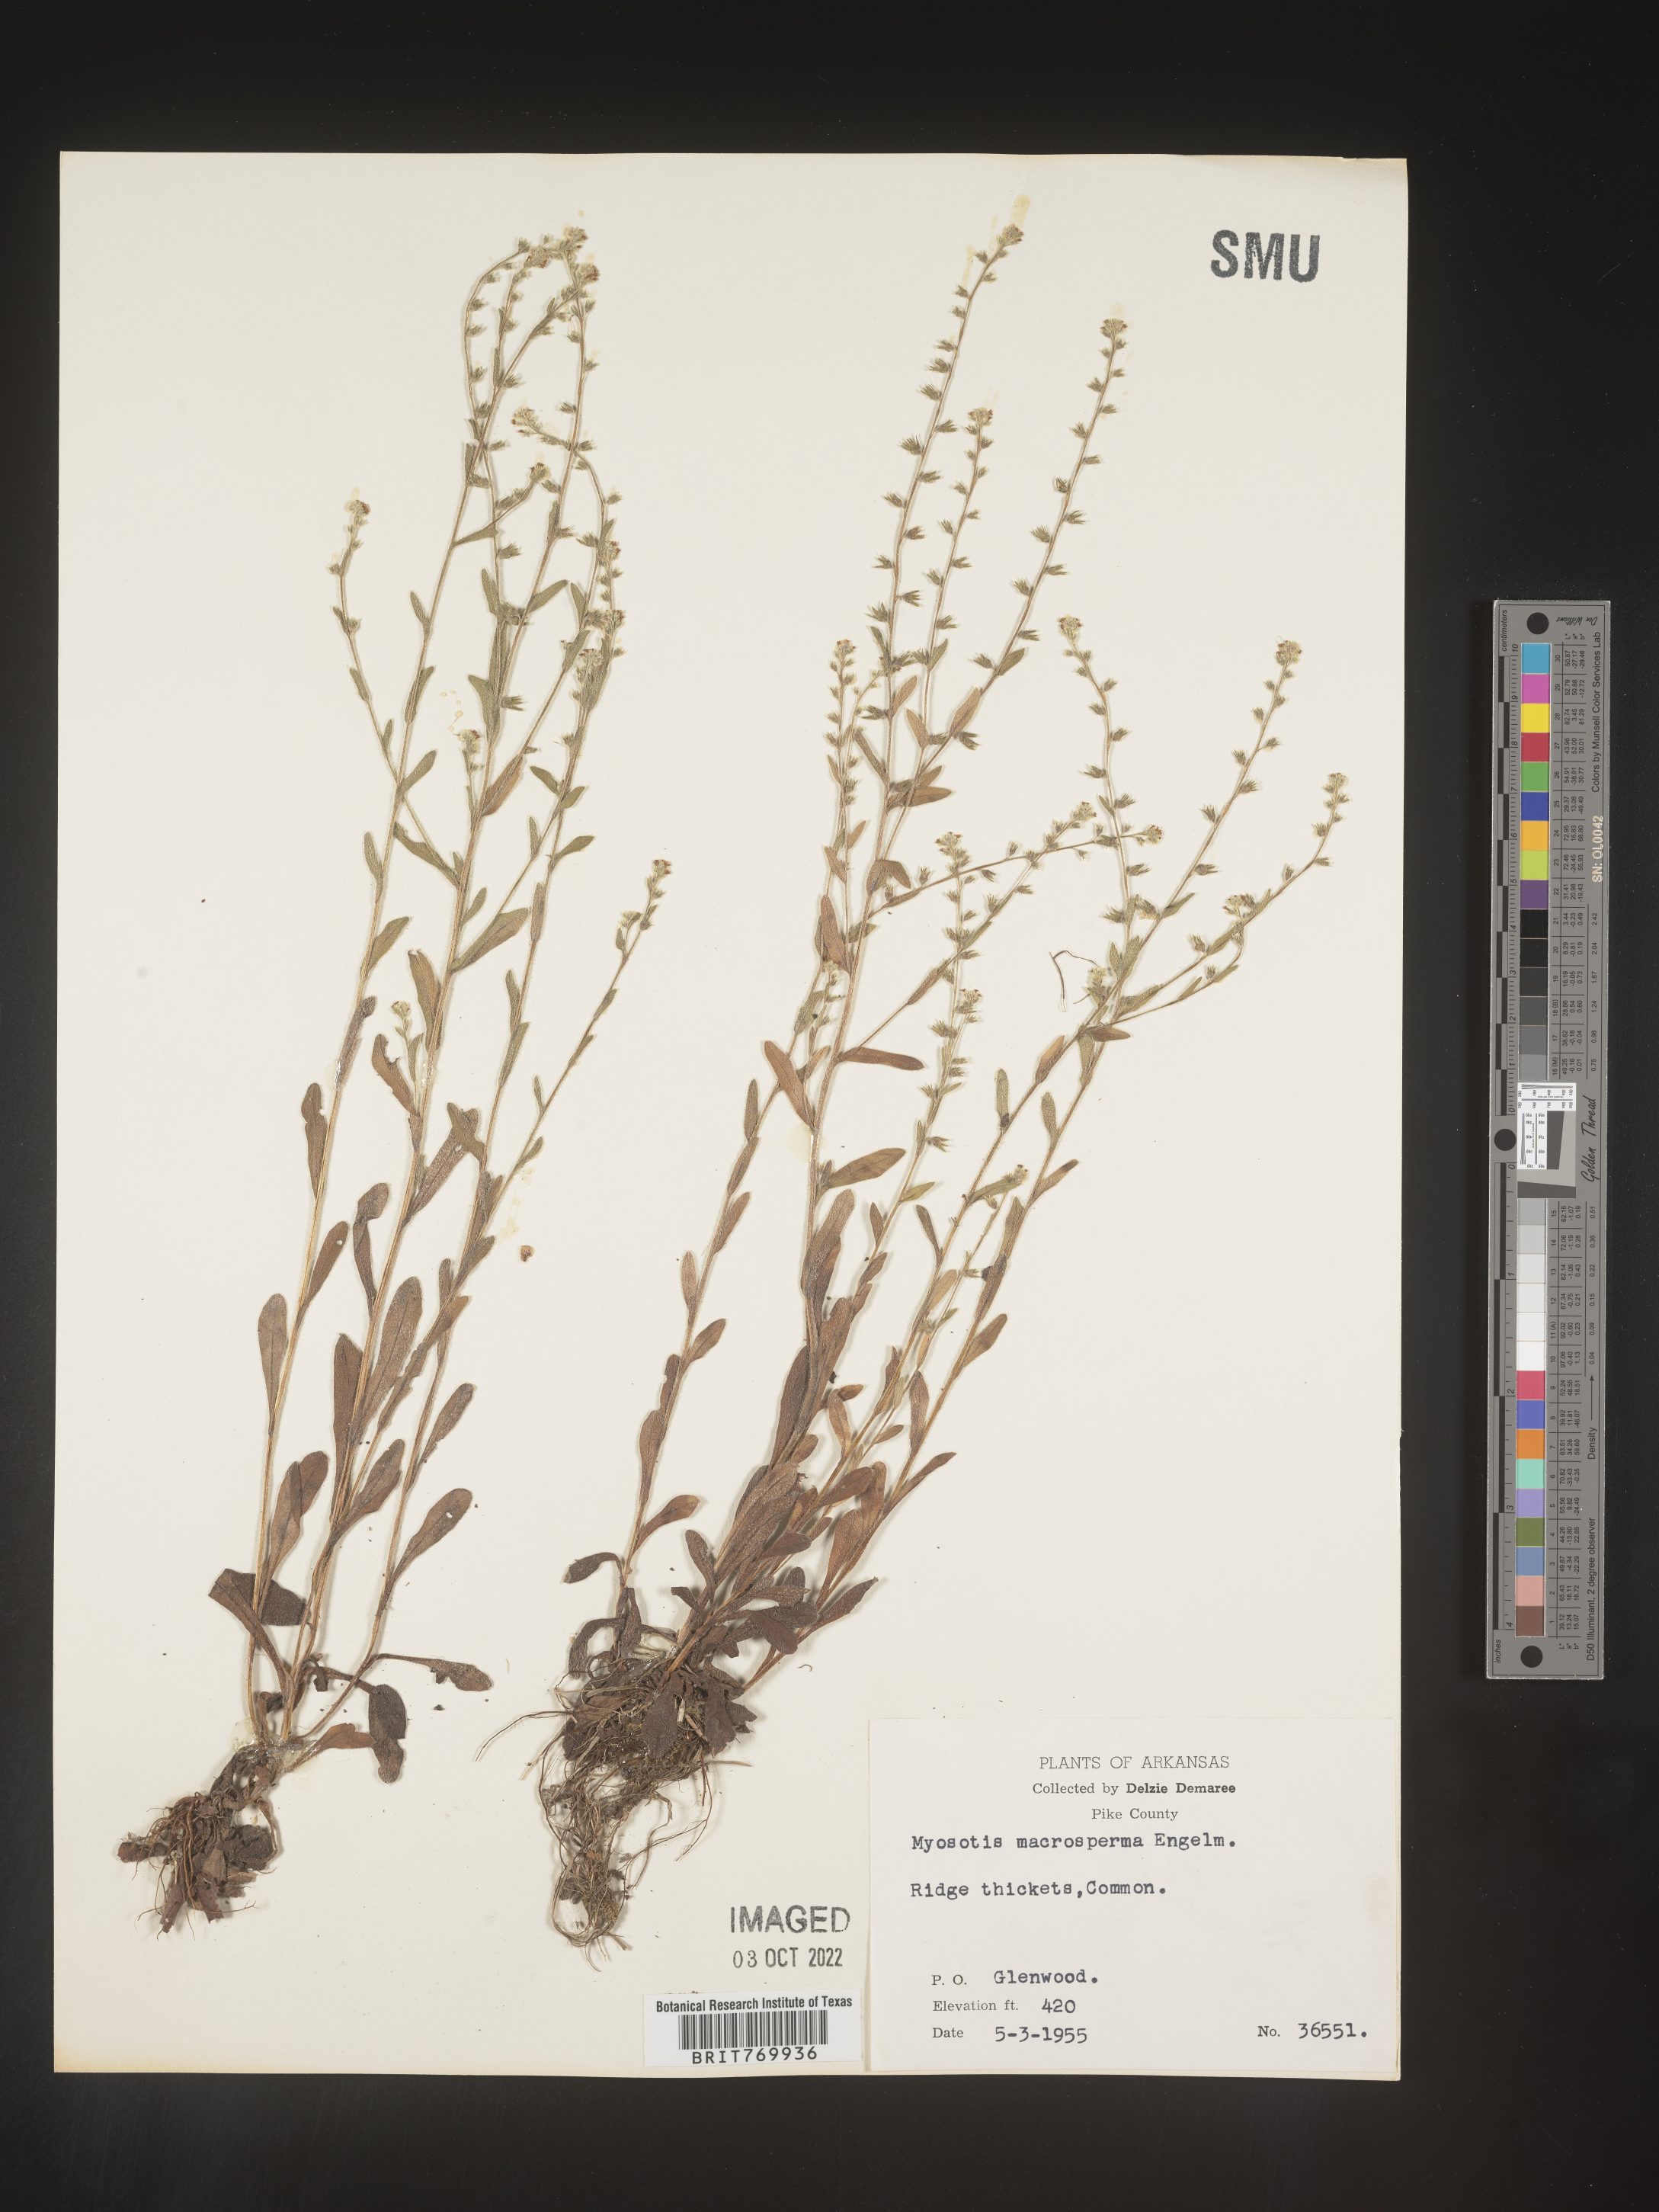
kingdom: Plantae
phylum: Tracheophyta
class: Magnoliopsida
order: Boraginales
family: Boraginaceae
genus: Myosotis
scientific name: Myosotis verna
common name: Early forget-me-not
